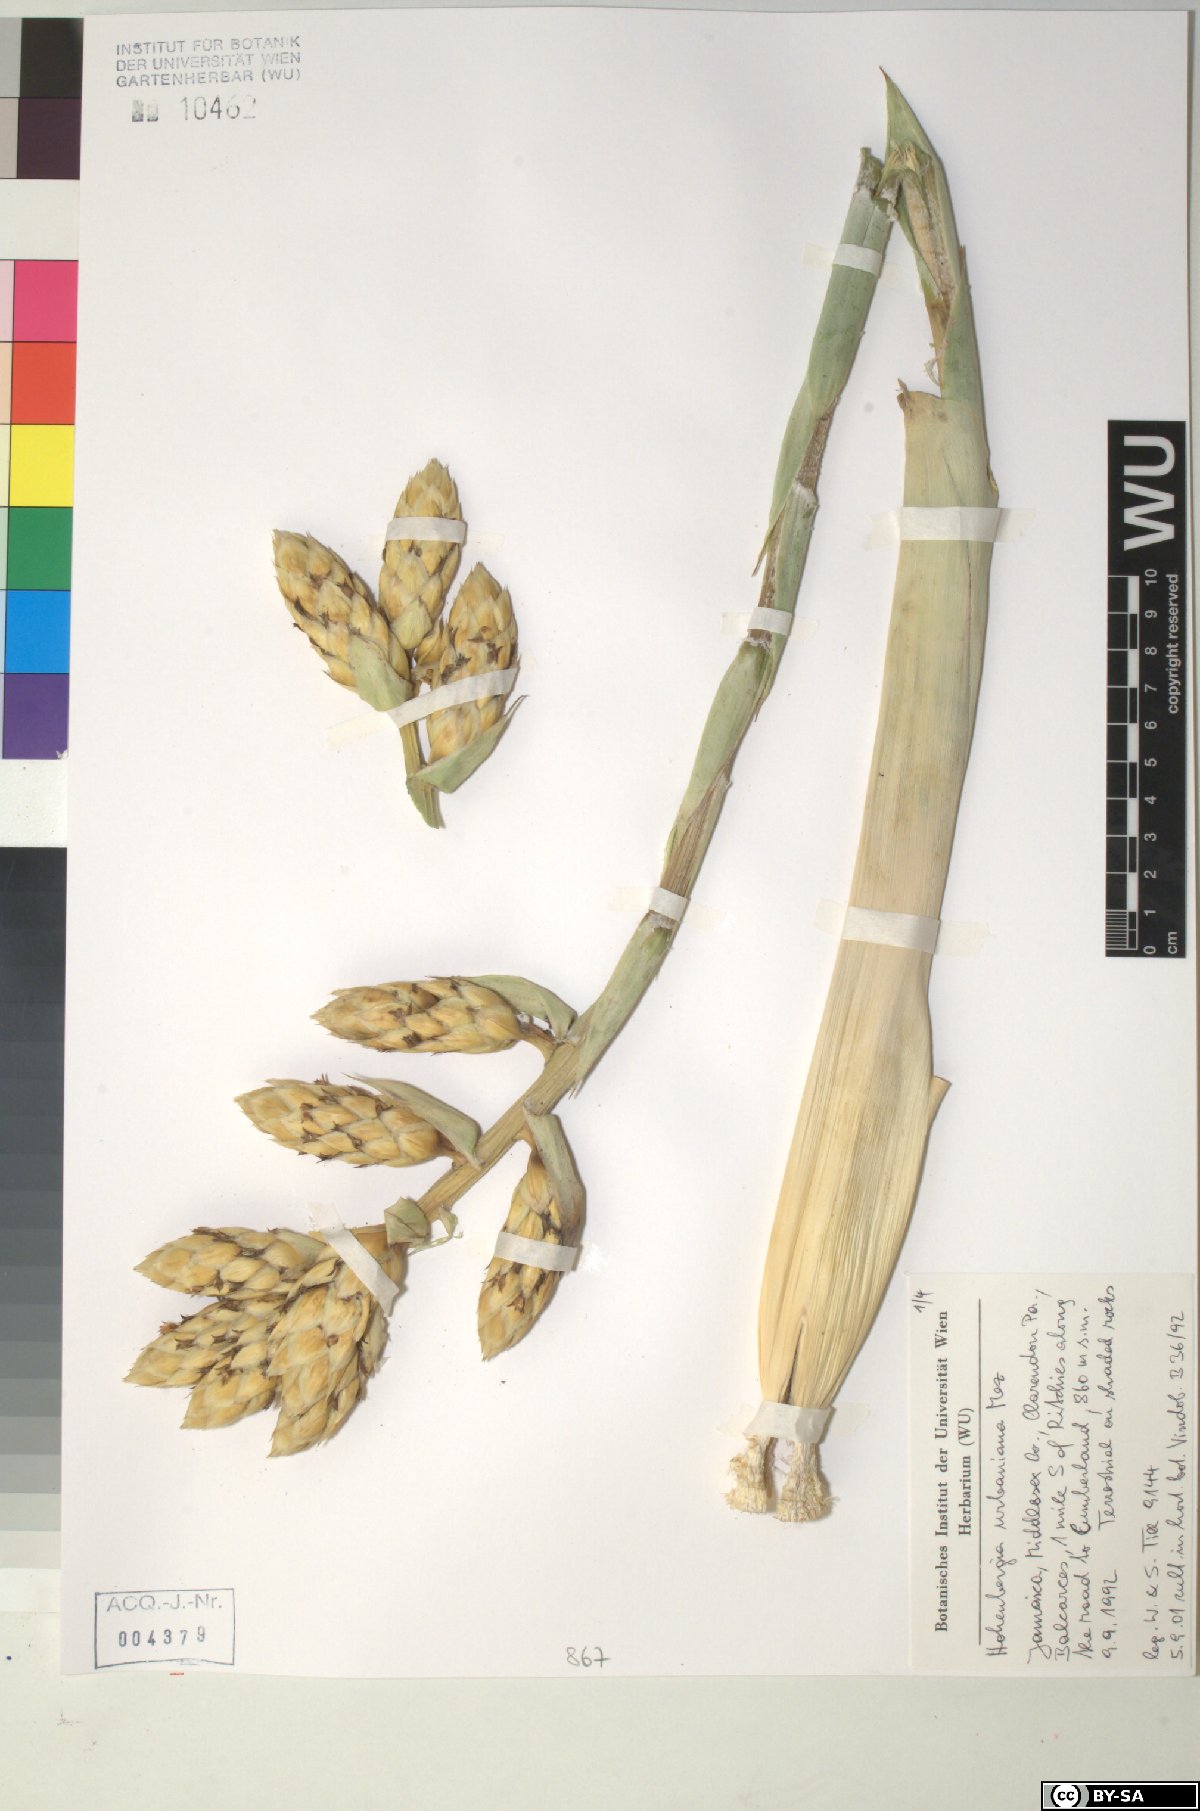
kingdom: Plantae
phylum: Tracheophyta
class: Liliopsida
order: Poales
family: Bromeliaceae
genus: Wittmackia
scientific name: Wittmackia urbaniana
